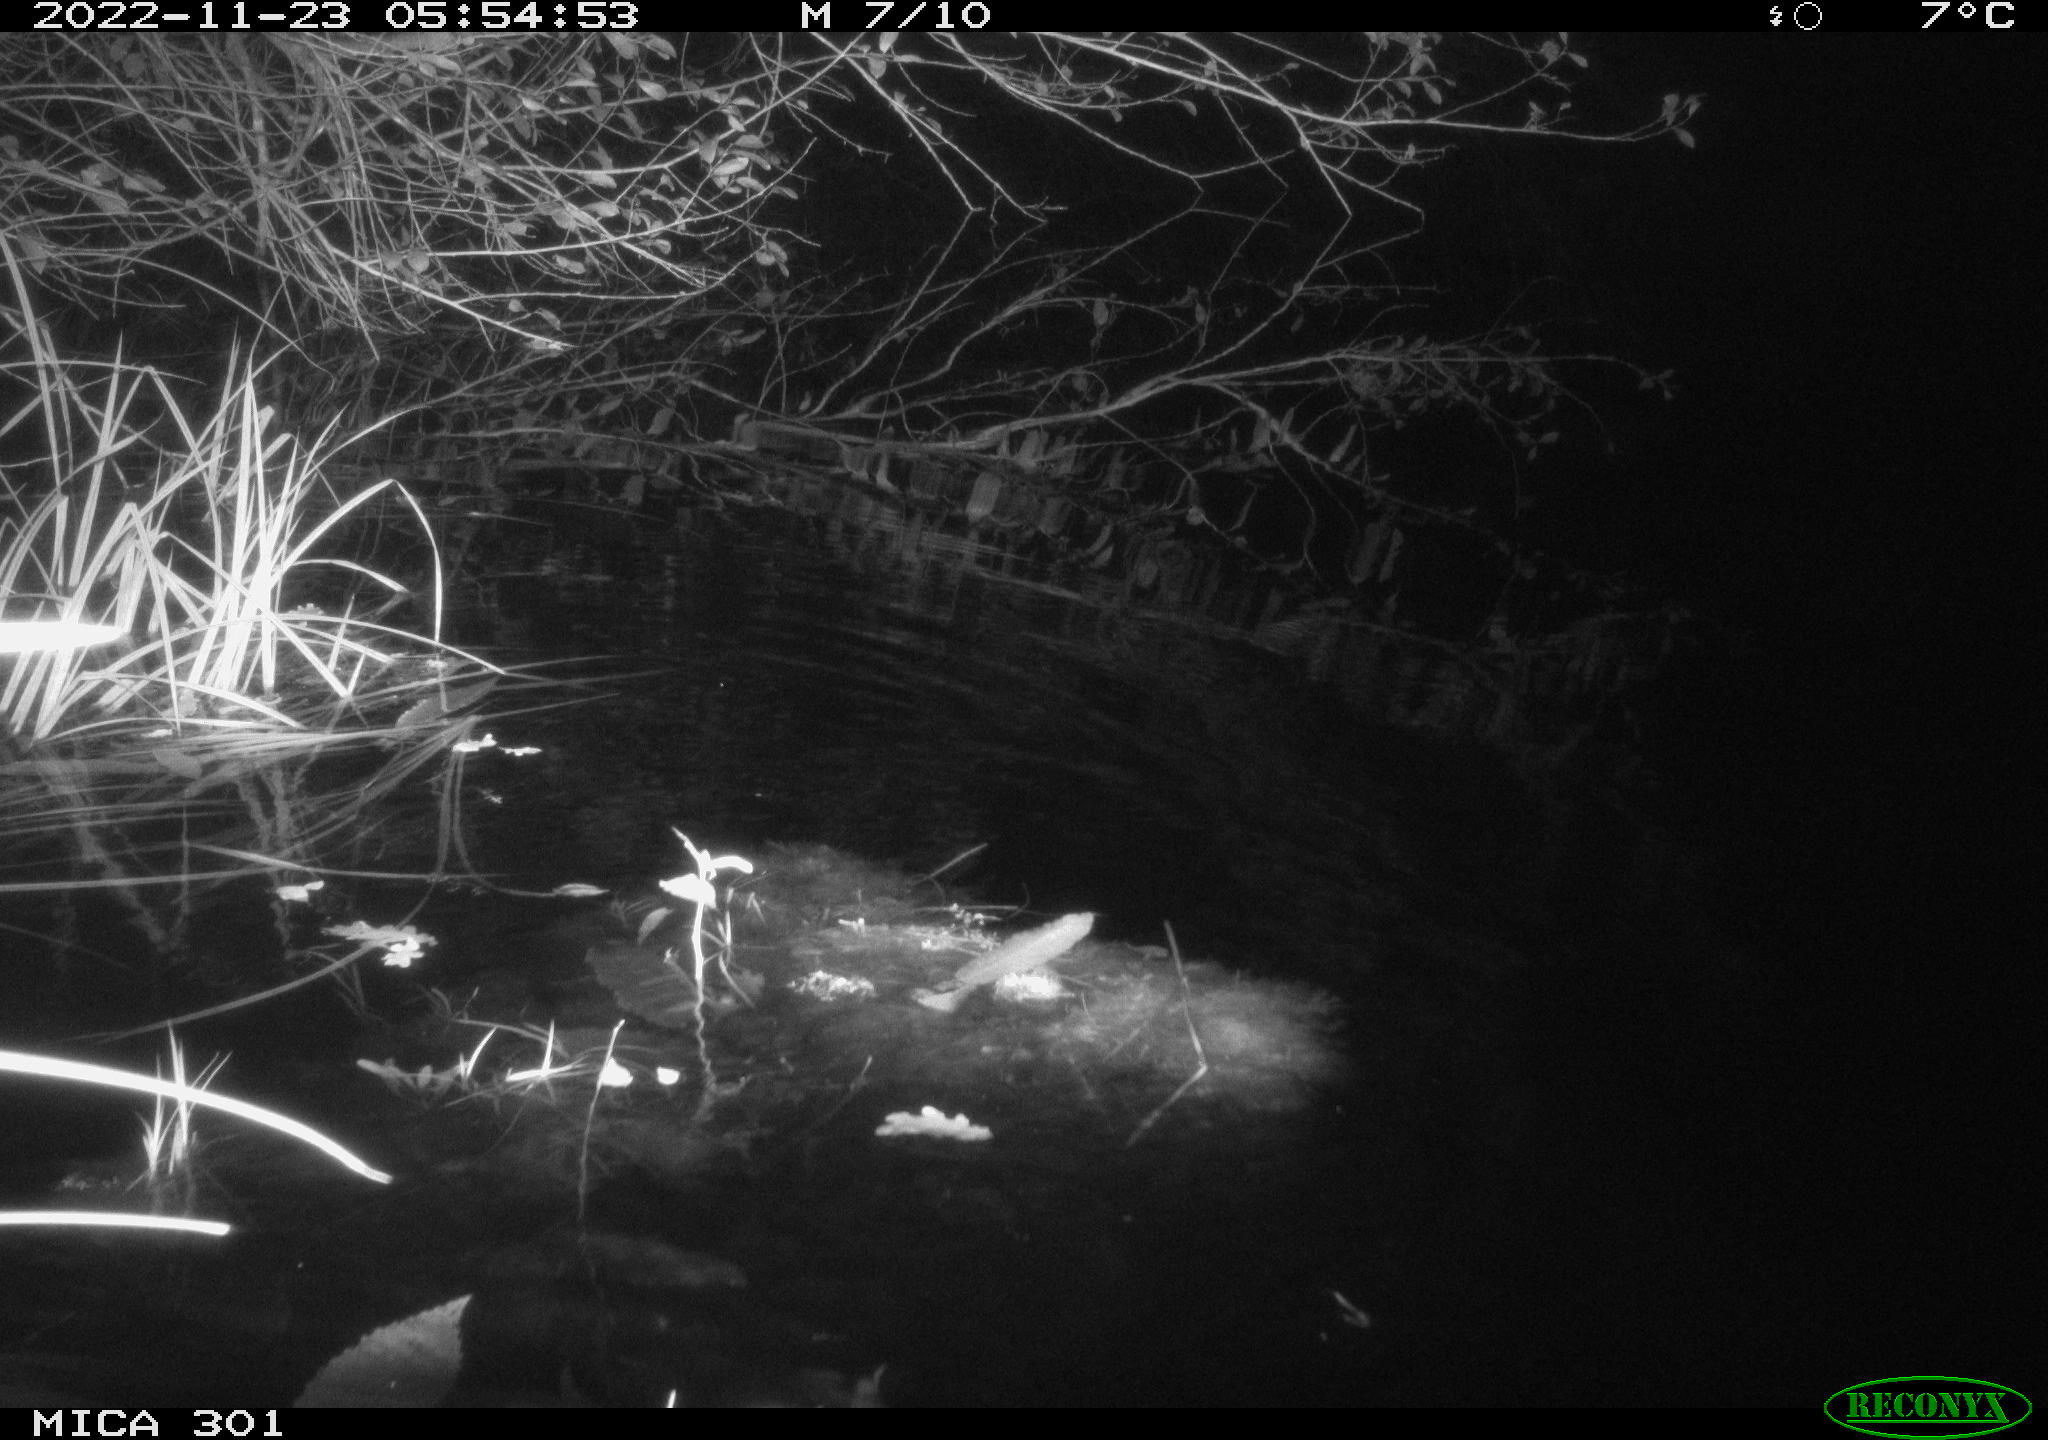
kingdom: Animalia
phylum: Chordata
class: Mammalia
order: Rodentia
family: Muridae
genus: Rattus
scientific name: Rattus norvegicus
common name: Brown rat
